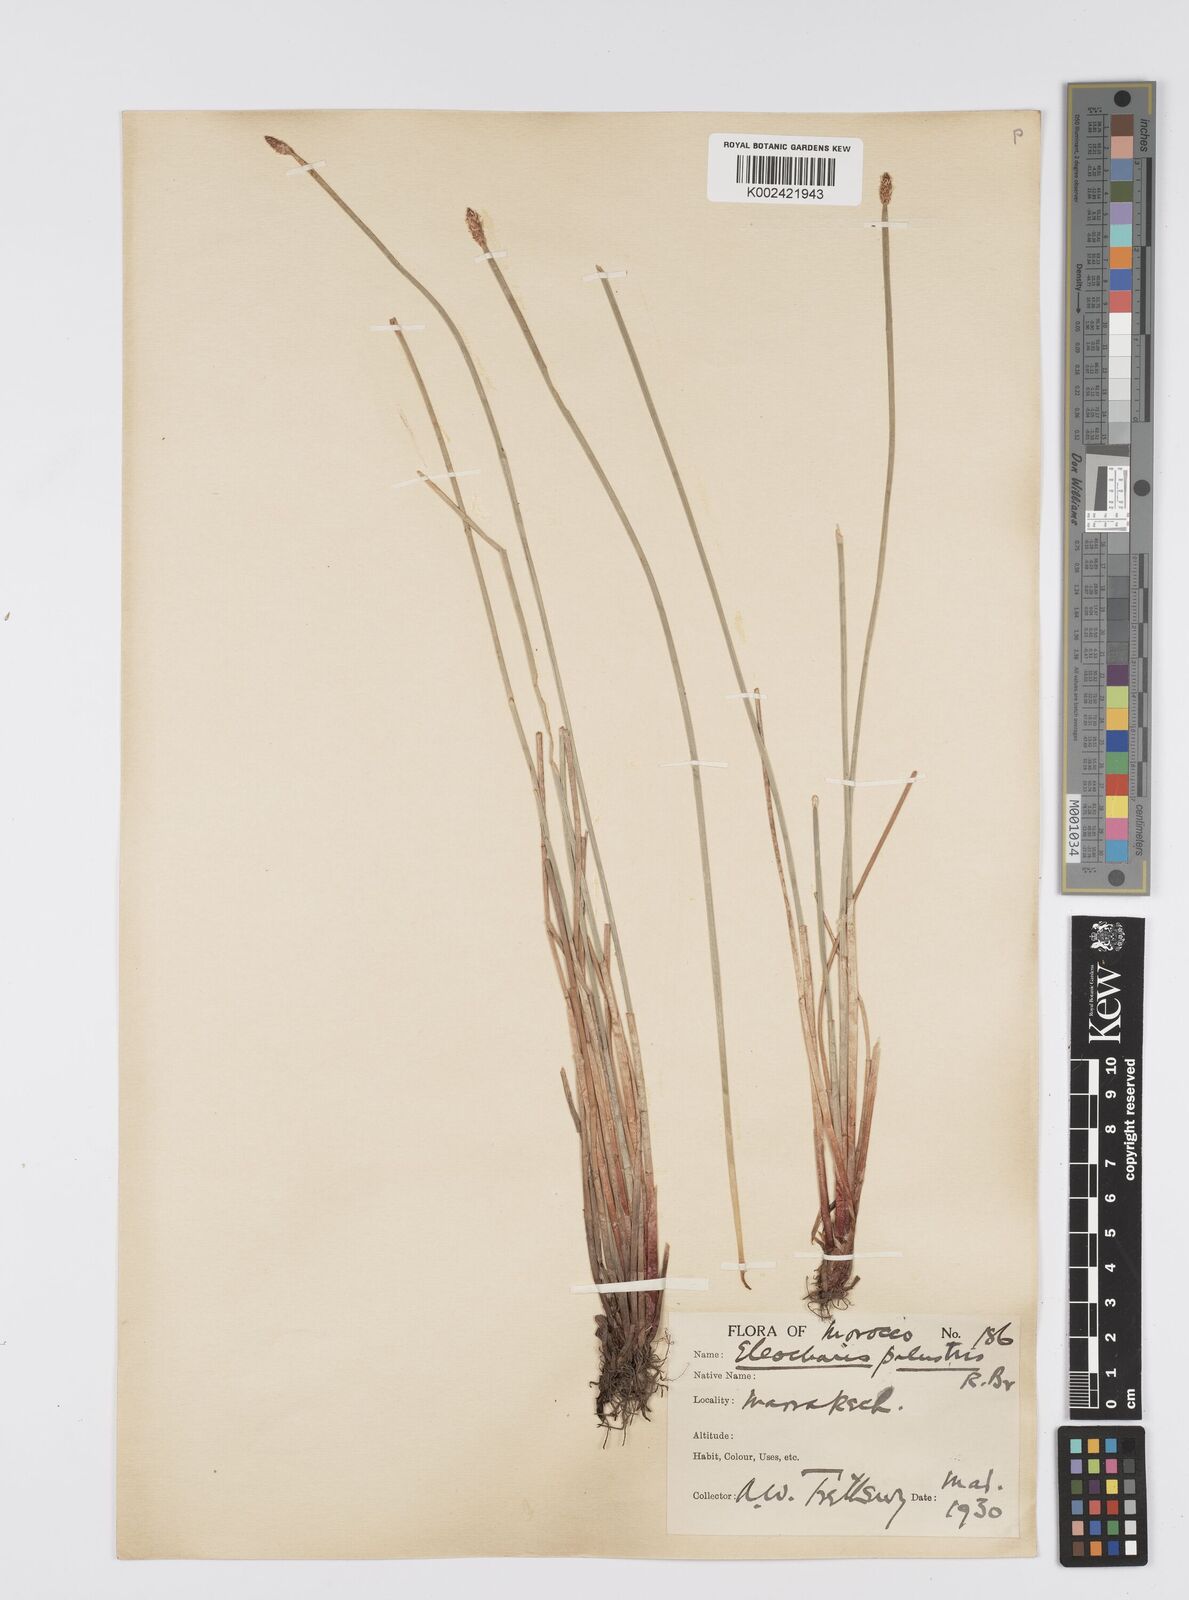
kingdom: Plantae
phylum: Tracheophyta
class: Liliopsida
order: Poales
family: Cyperaceae
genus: Eleocharis
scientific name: Eleocharis palustris
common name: Common spike-rush
